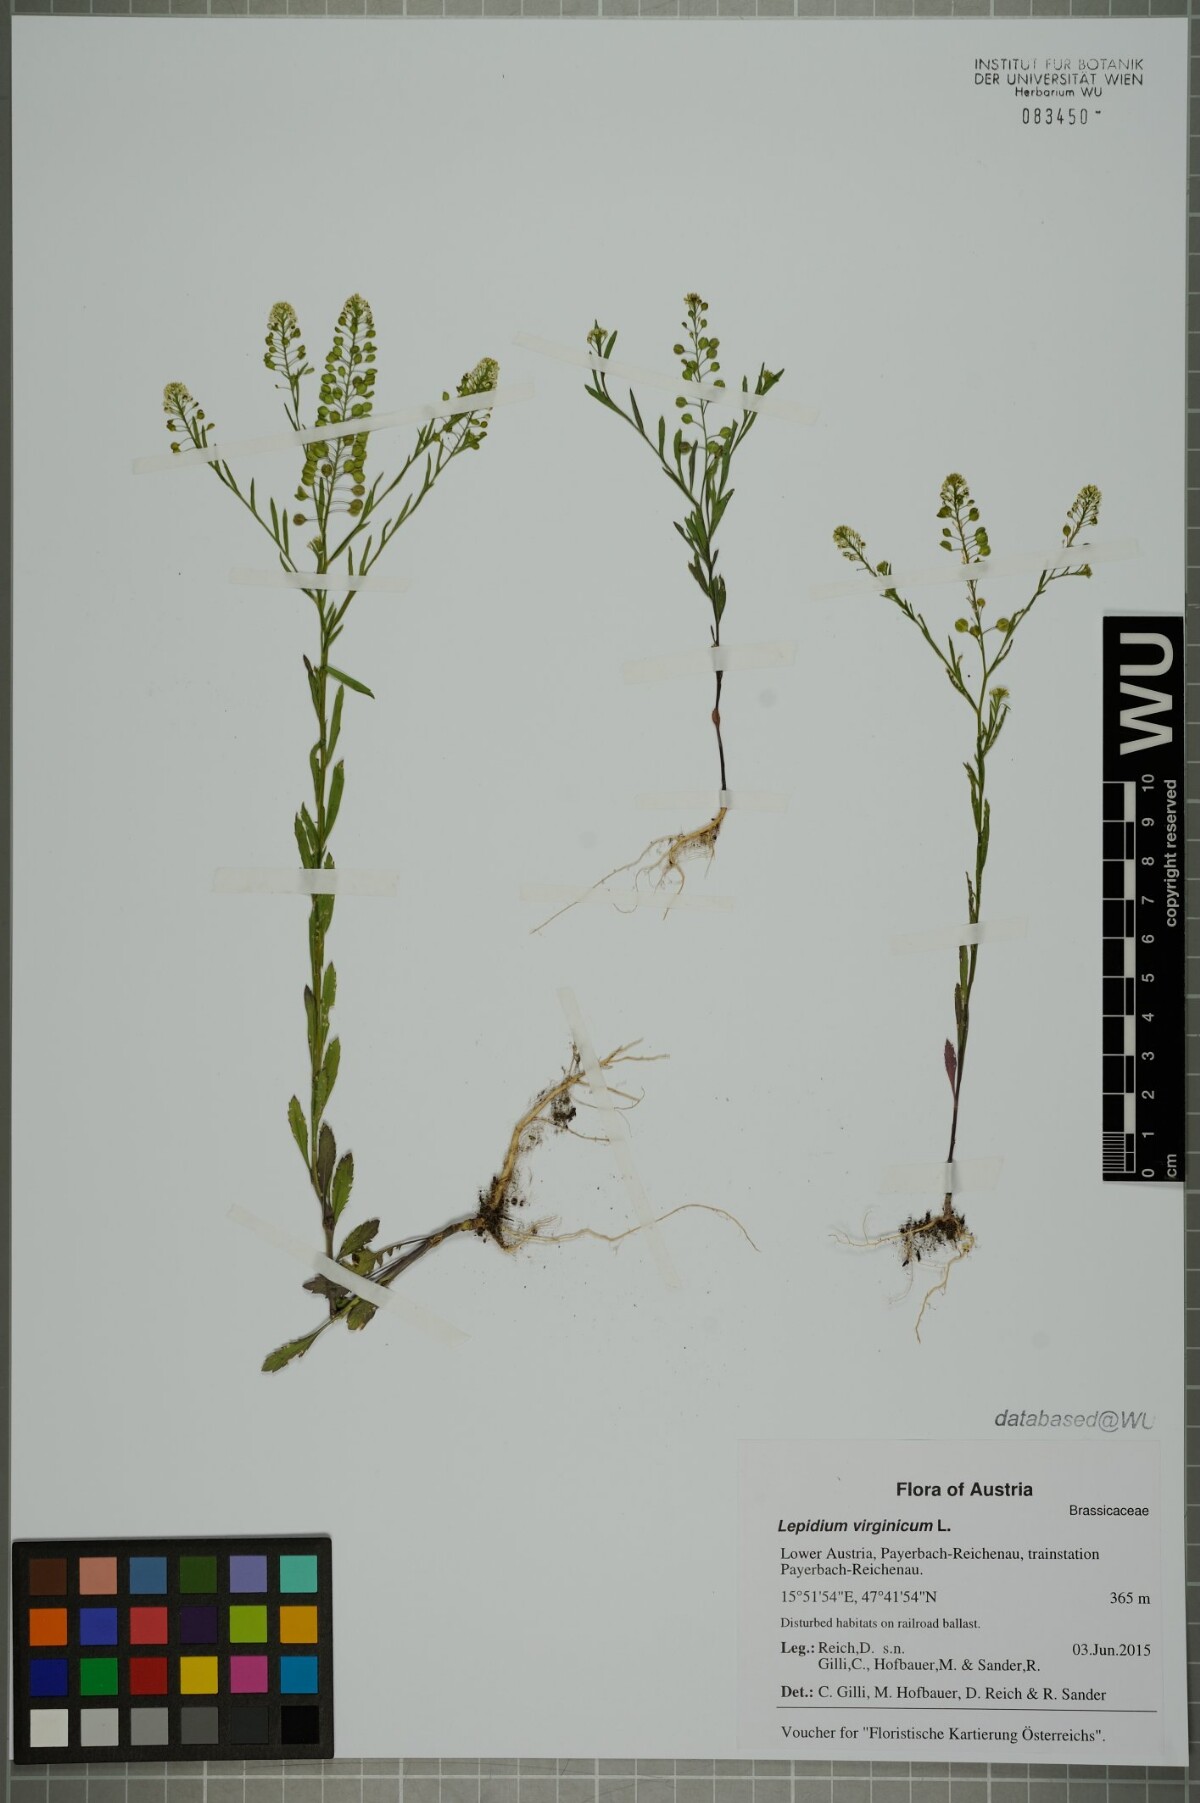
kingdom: Plantae
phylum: Tracheophyta
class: Magnoliopsida
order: Brassicales
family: Brassicaceae
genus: Lepidium
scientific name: Lepidium virginicum
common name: Least pepperwort
